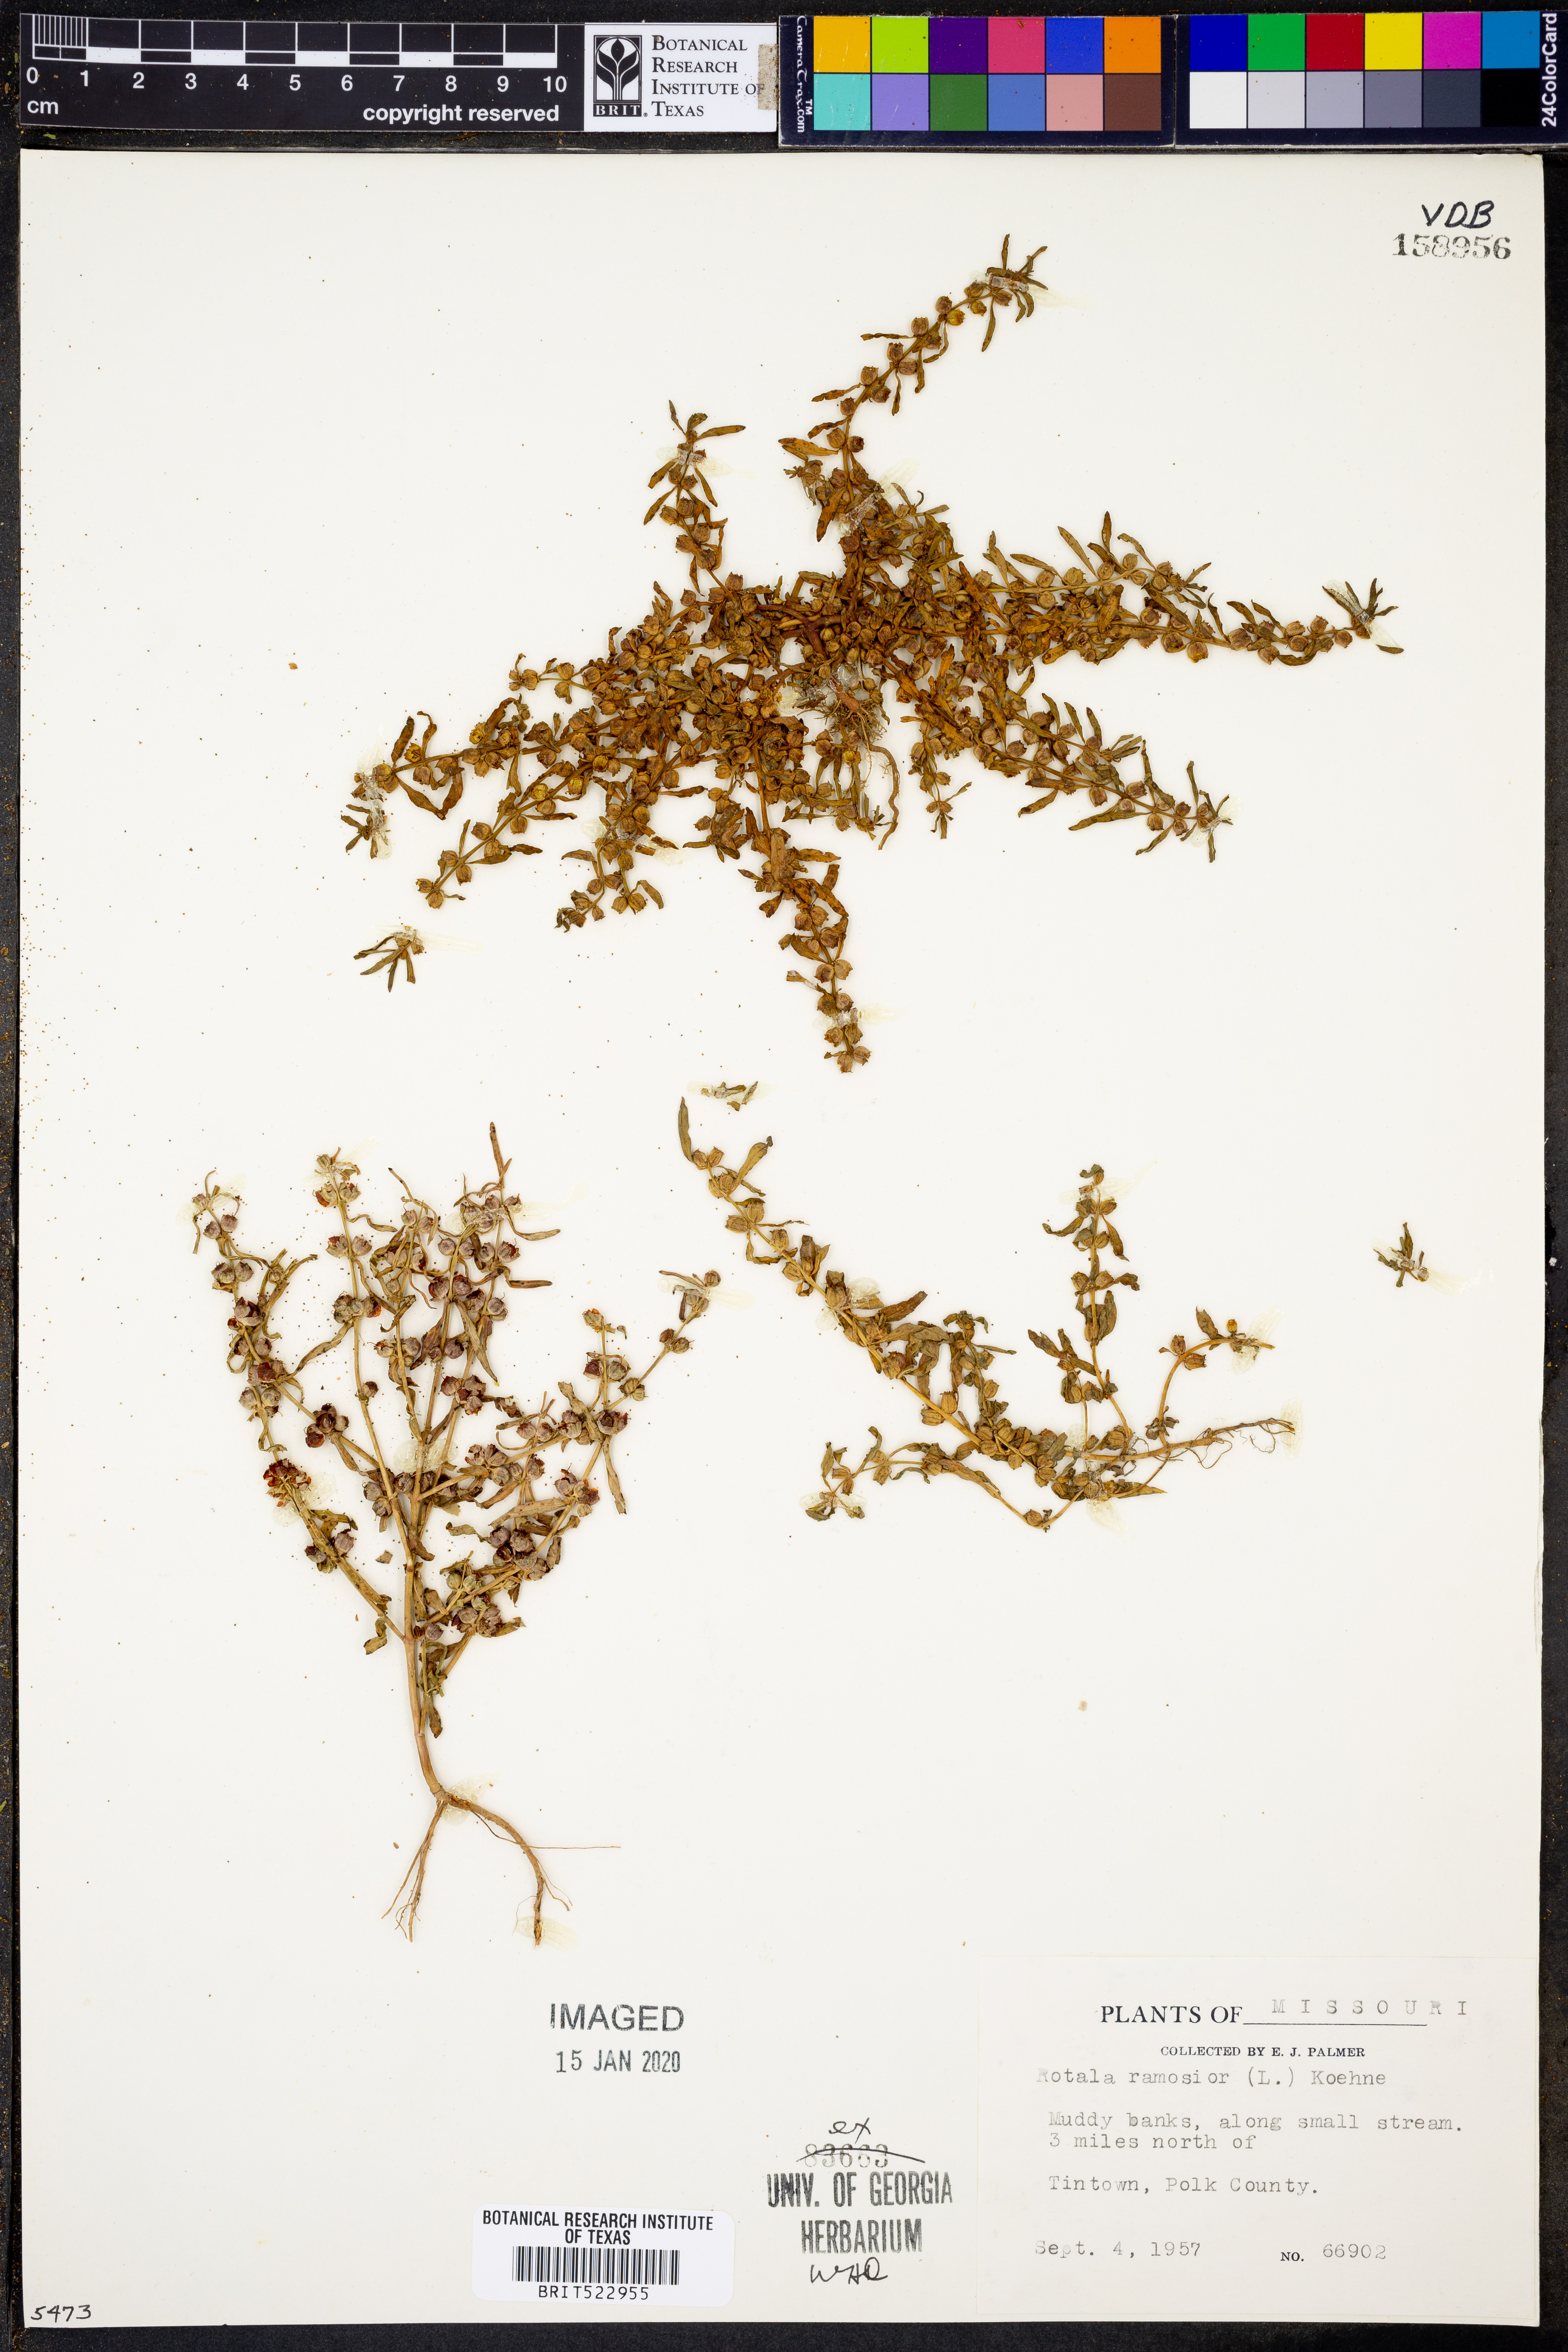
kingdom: Plantae
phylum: Tracheophyta
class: Magnoliopsida
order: Myrtales
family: Lythraceae
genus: Rotala
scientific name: Rotala ramosior
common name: Lowland rotala
